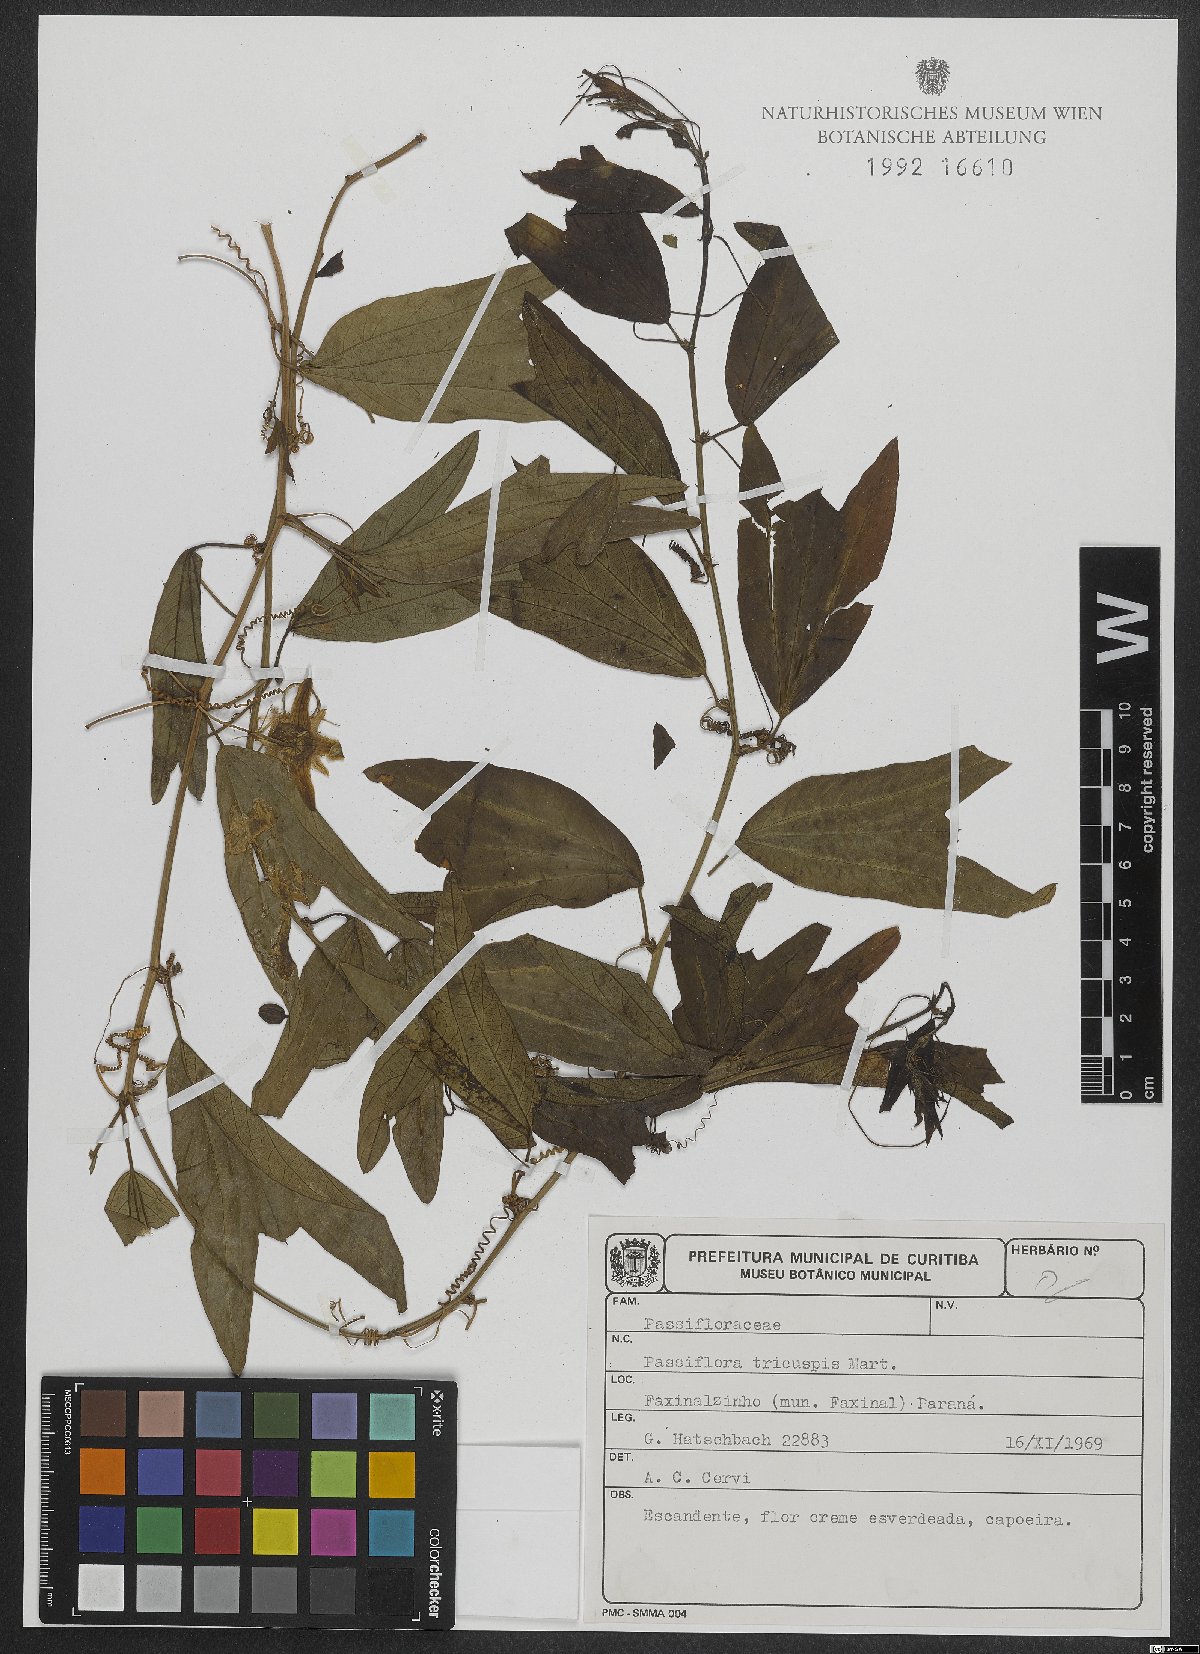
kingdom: Plantae
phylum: Tracheophyta
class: Magnoliopsida
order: Malpighiales
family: Passifloraceae
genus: Passiflora
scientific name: Passiflora tricuspis
